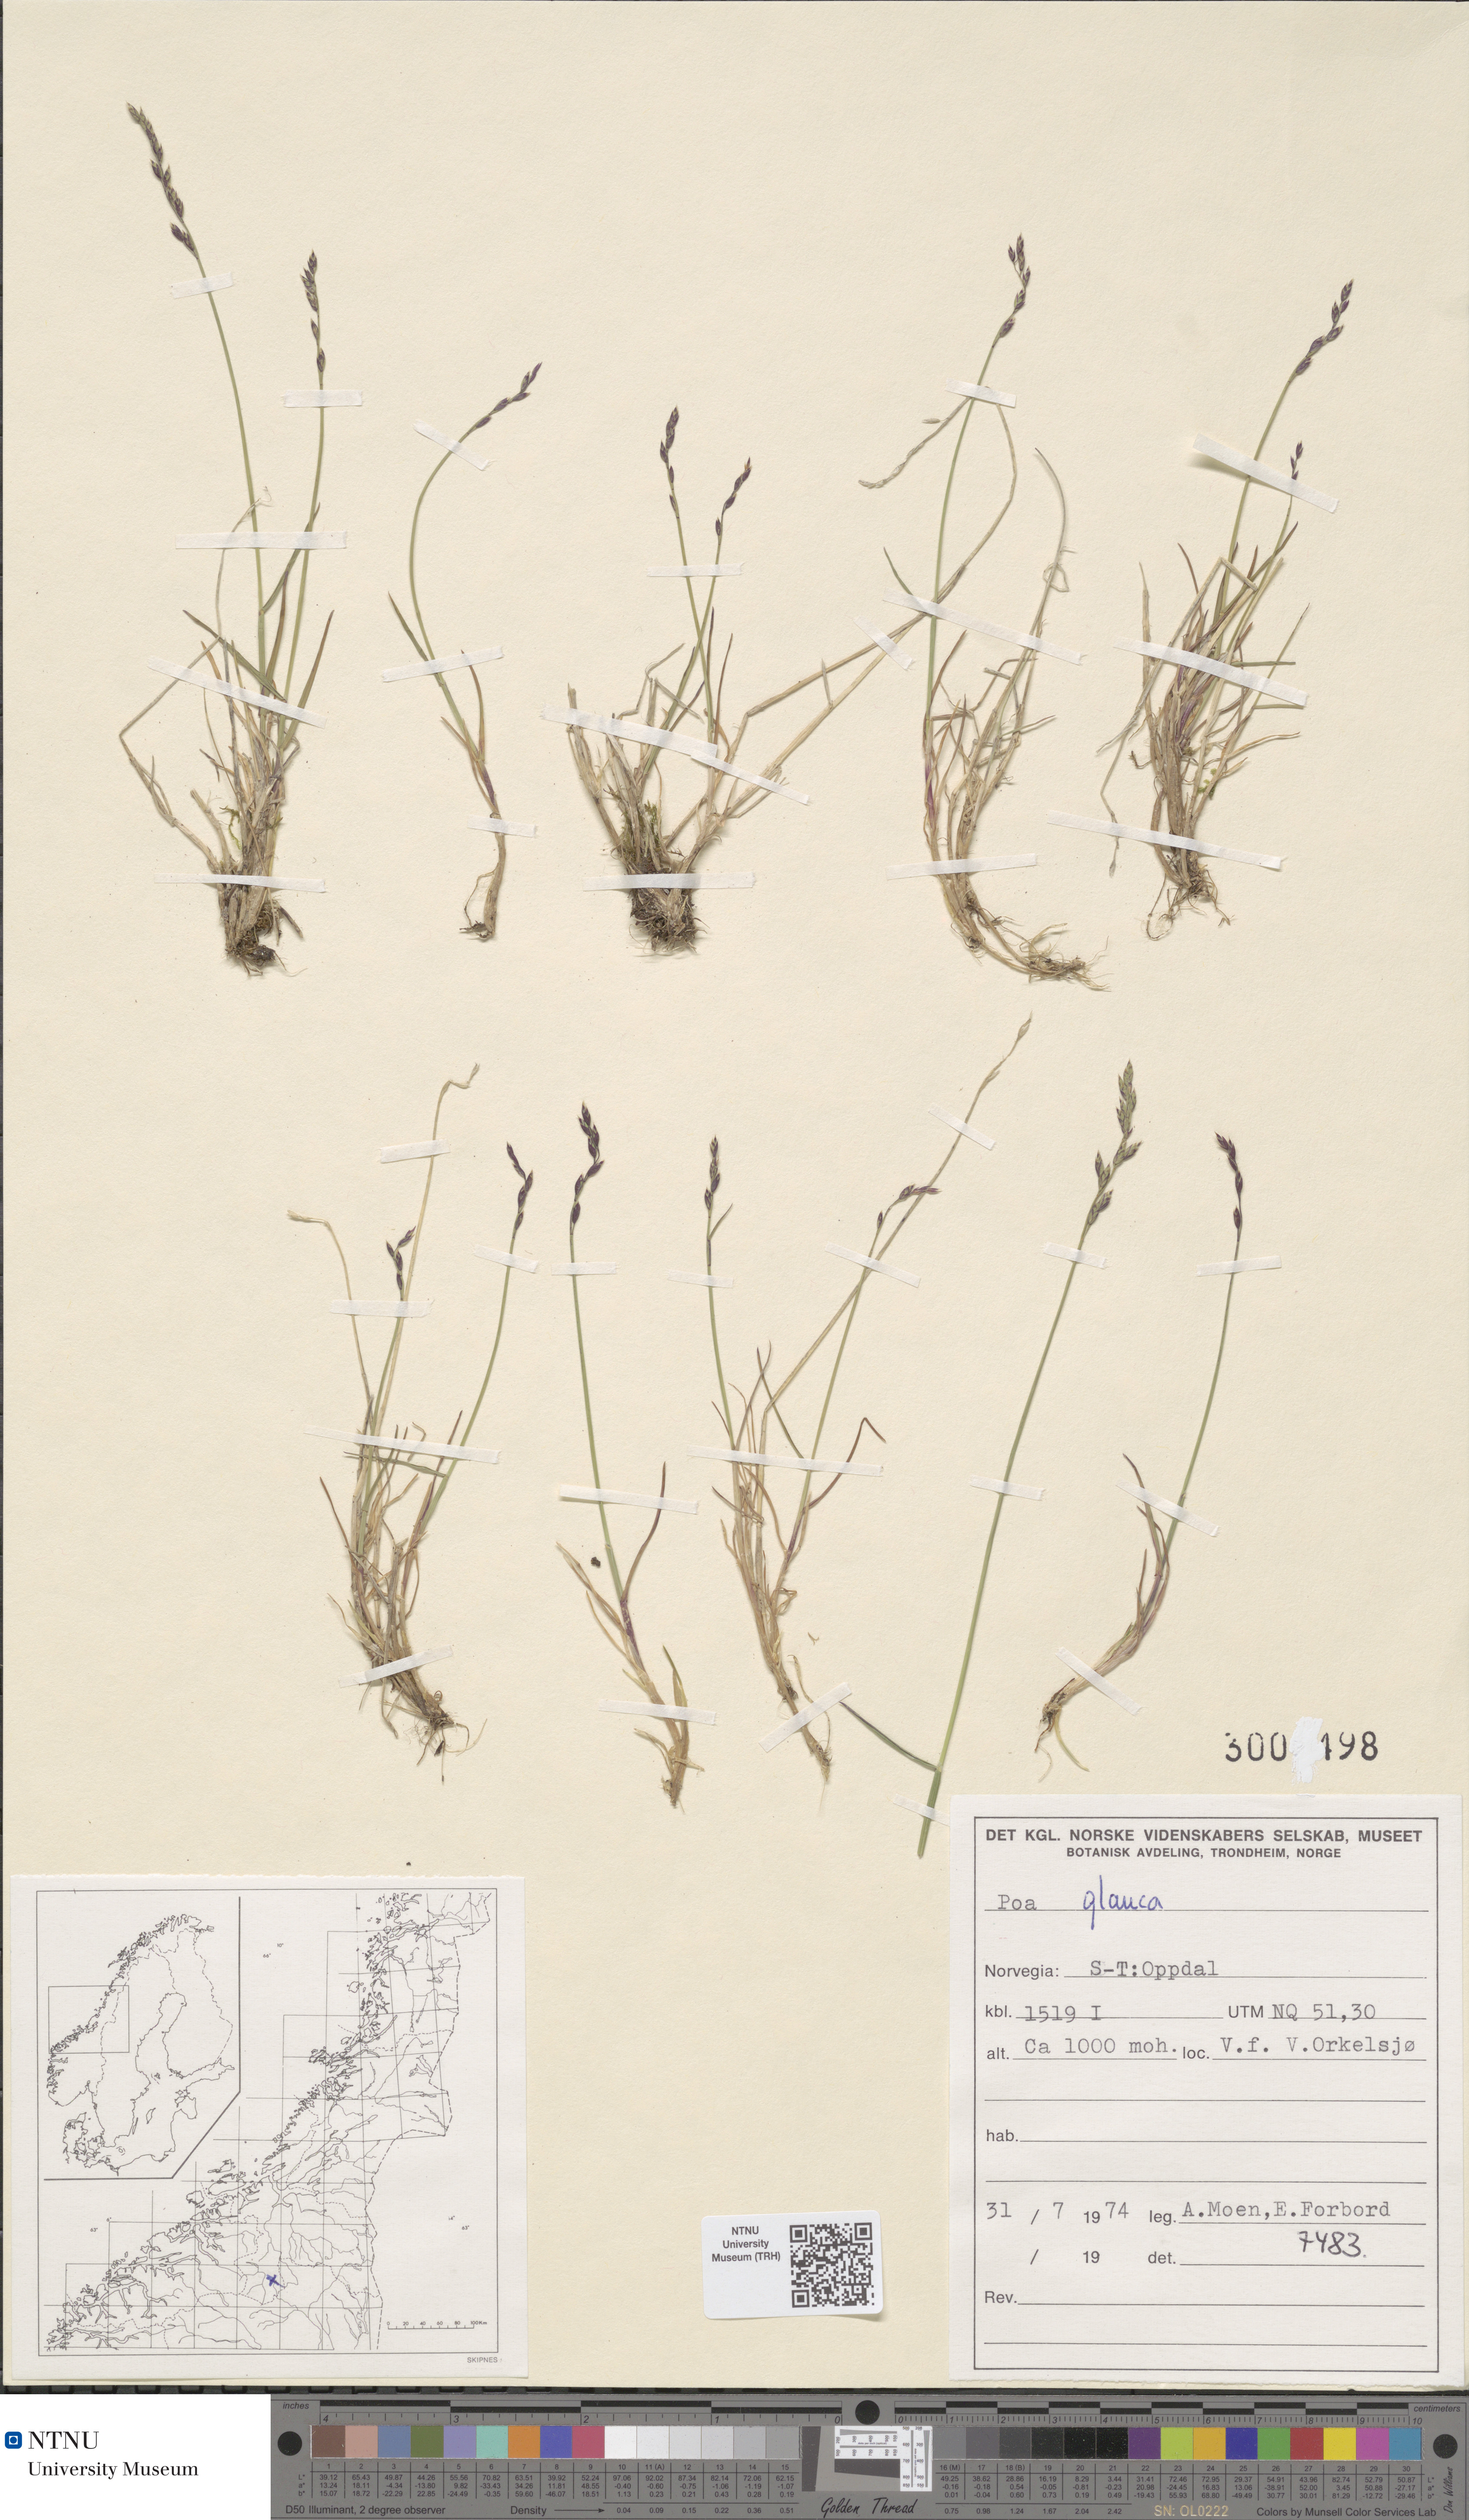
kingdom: Plantae
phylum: Tracheophyta
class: Magnoliopsida
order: Caryophyllales
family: Caryophyllaceae
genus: Sagina
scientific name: Sagina maritima
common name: Sea pearlwort
